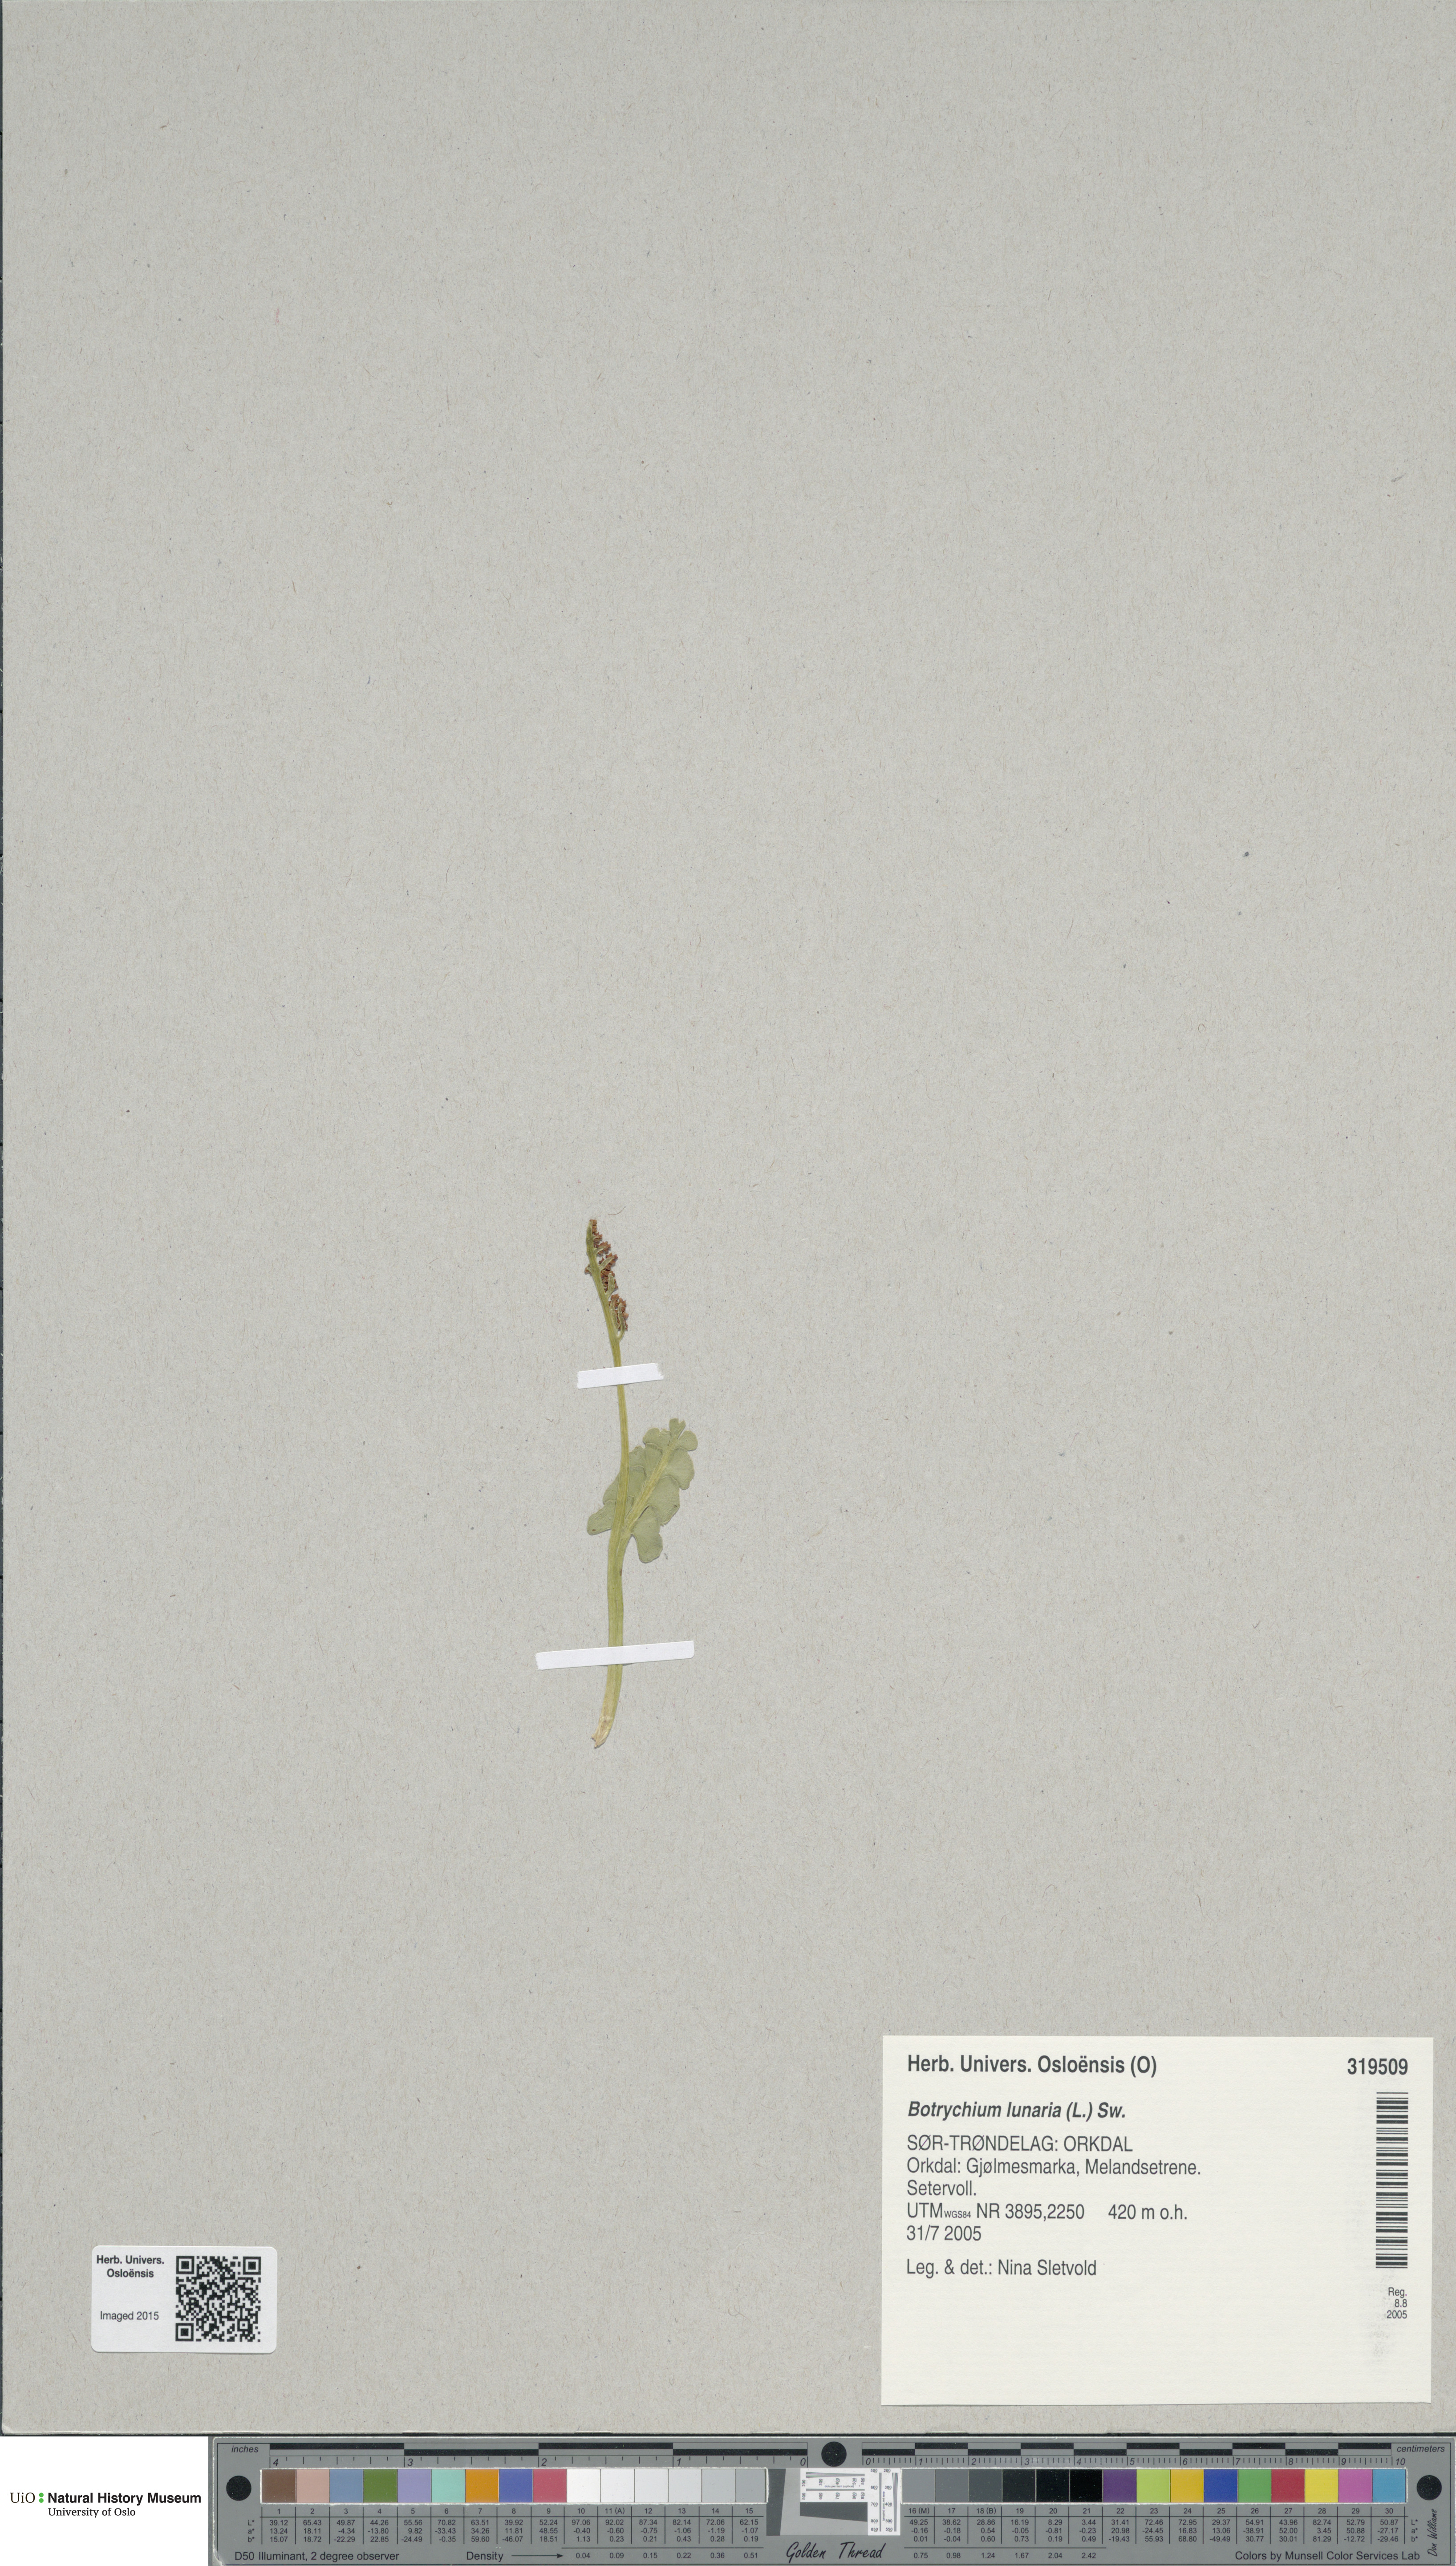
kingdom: Plantae
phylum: Tracheophyta
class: Polypodiopsida
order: Ophioglossales
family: Ophioglossaceae
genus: Botrychium
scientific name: Botrychium lunaria
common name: Moonwort
